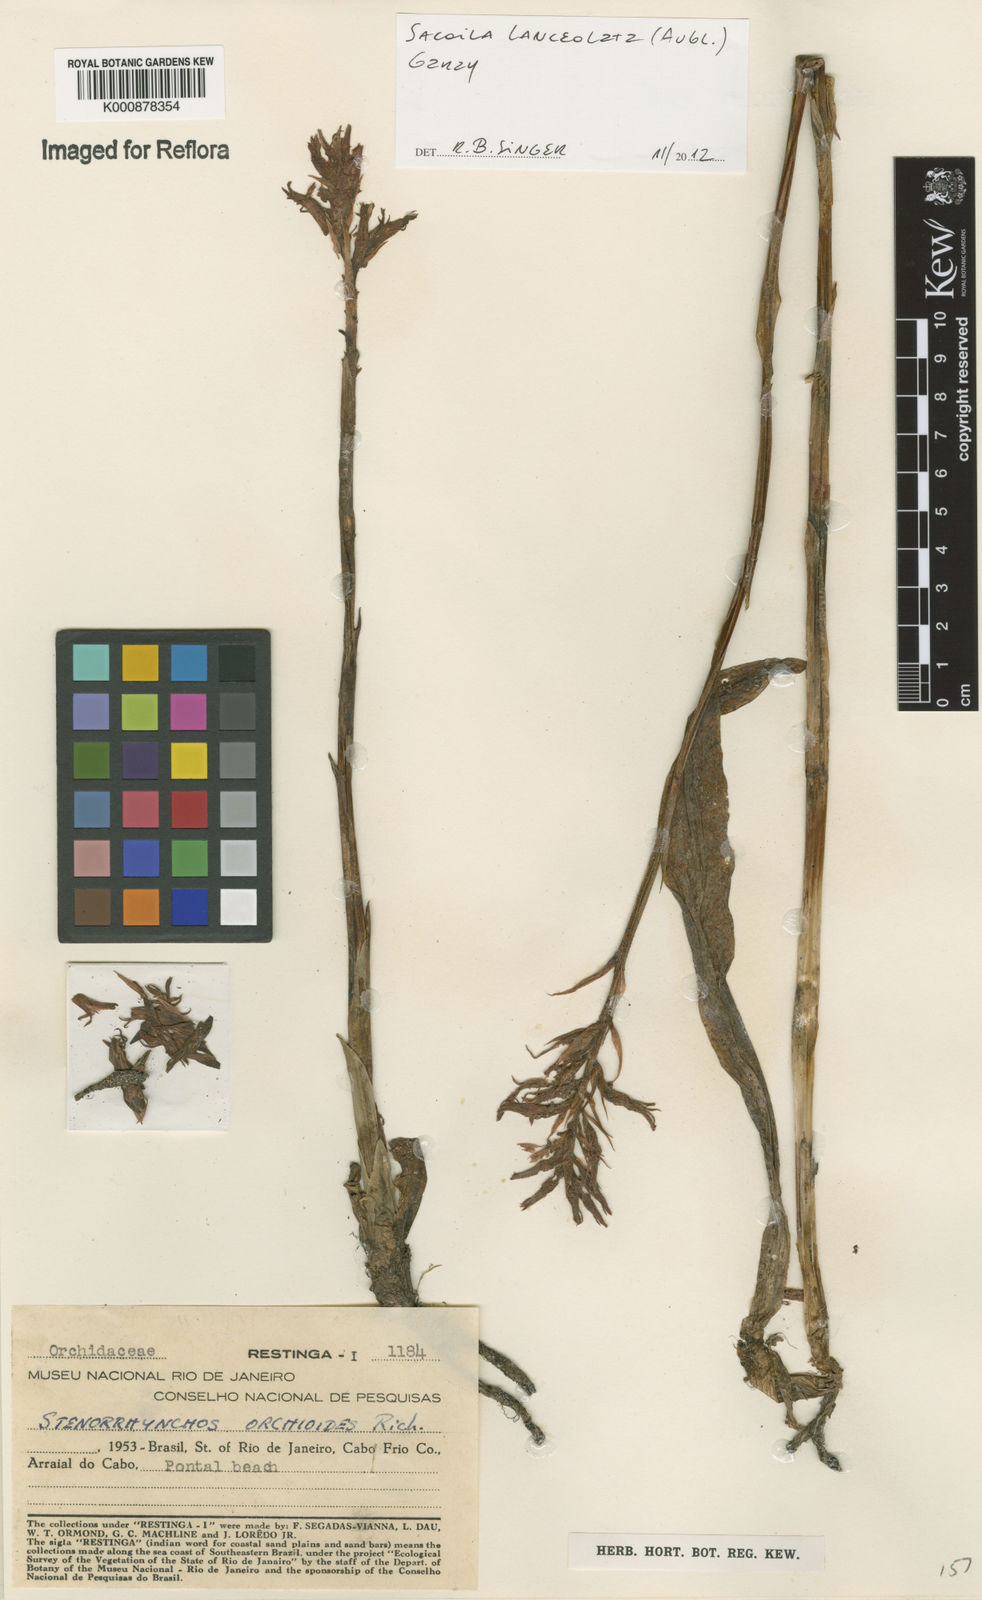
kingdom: Plantae
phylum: Tracheophyta
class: Liliopsida
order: Asparagales
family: Orchidaceae
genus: Sacoila
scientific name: Sacoila lanceolata
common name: Leafless beaked ladiestresses
